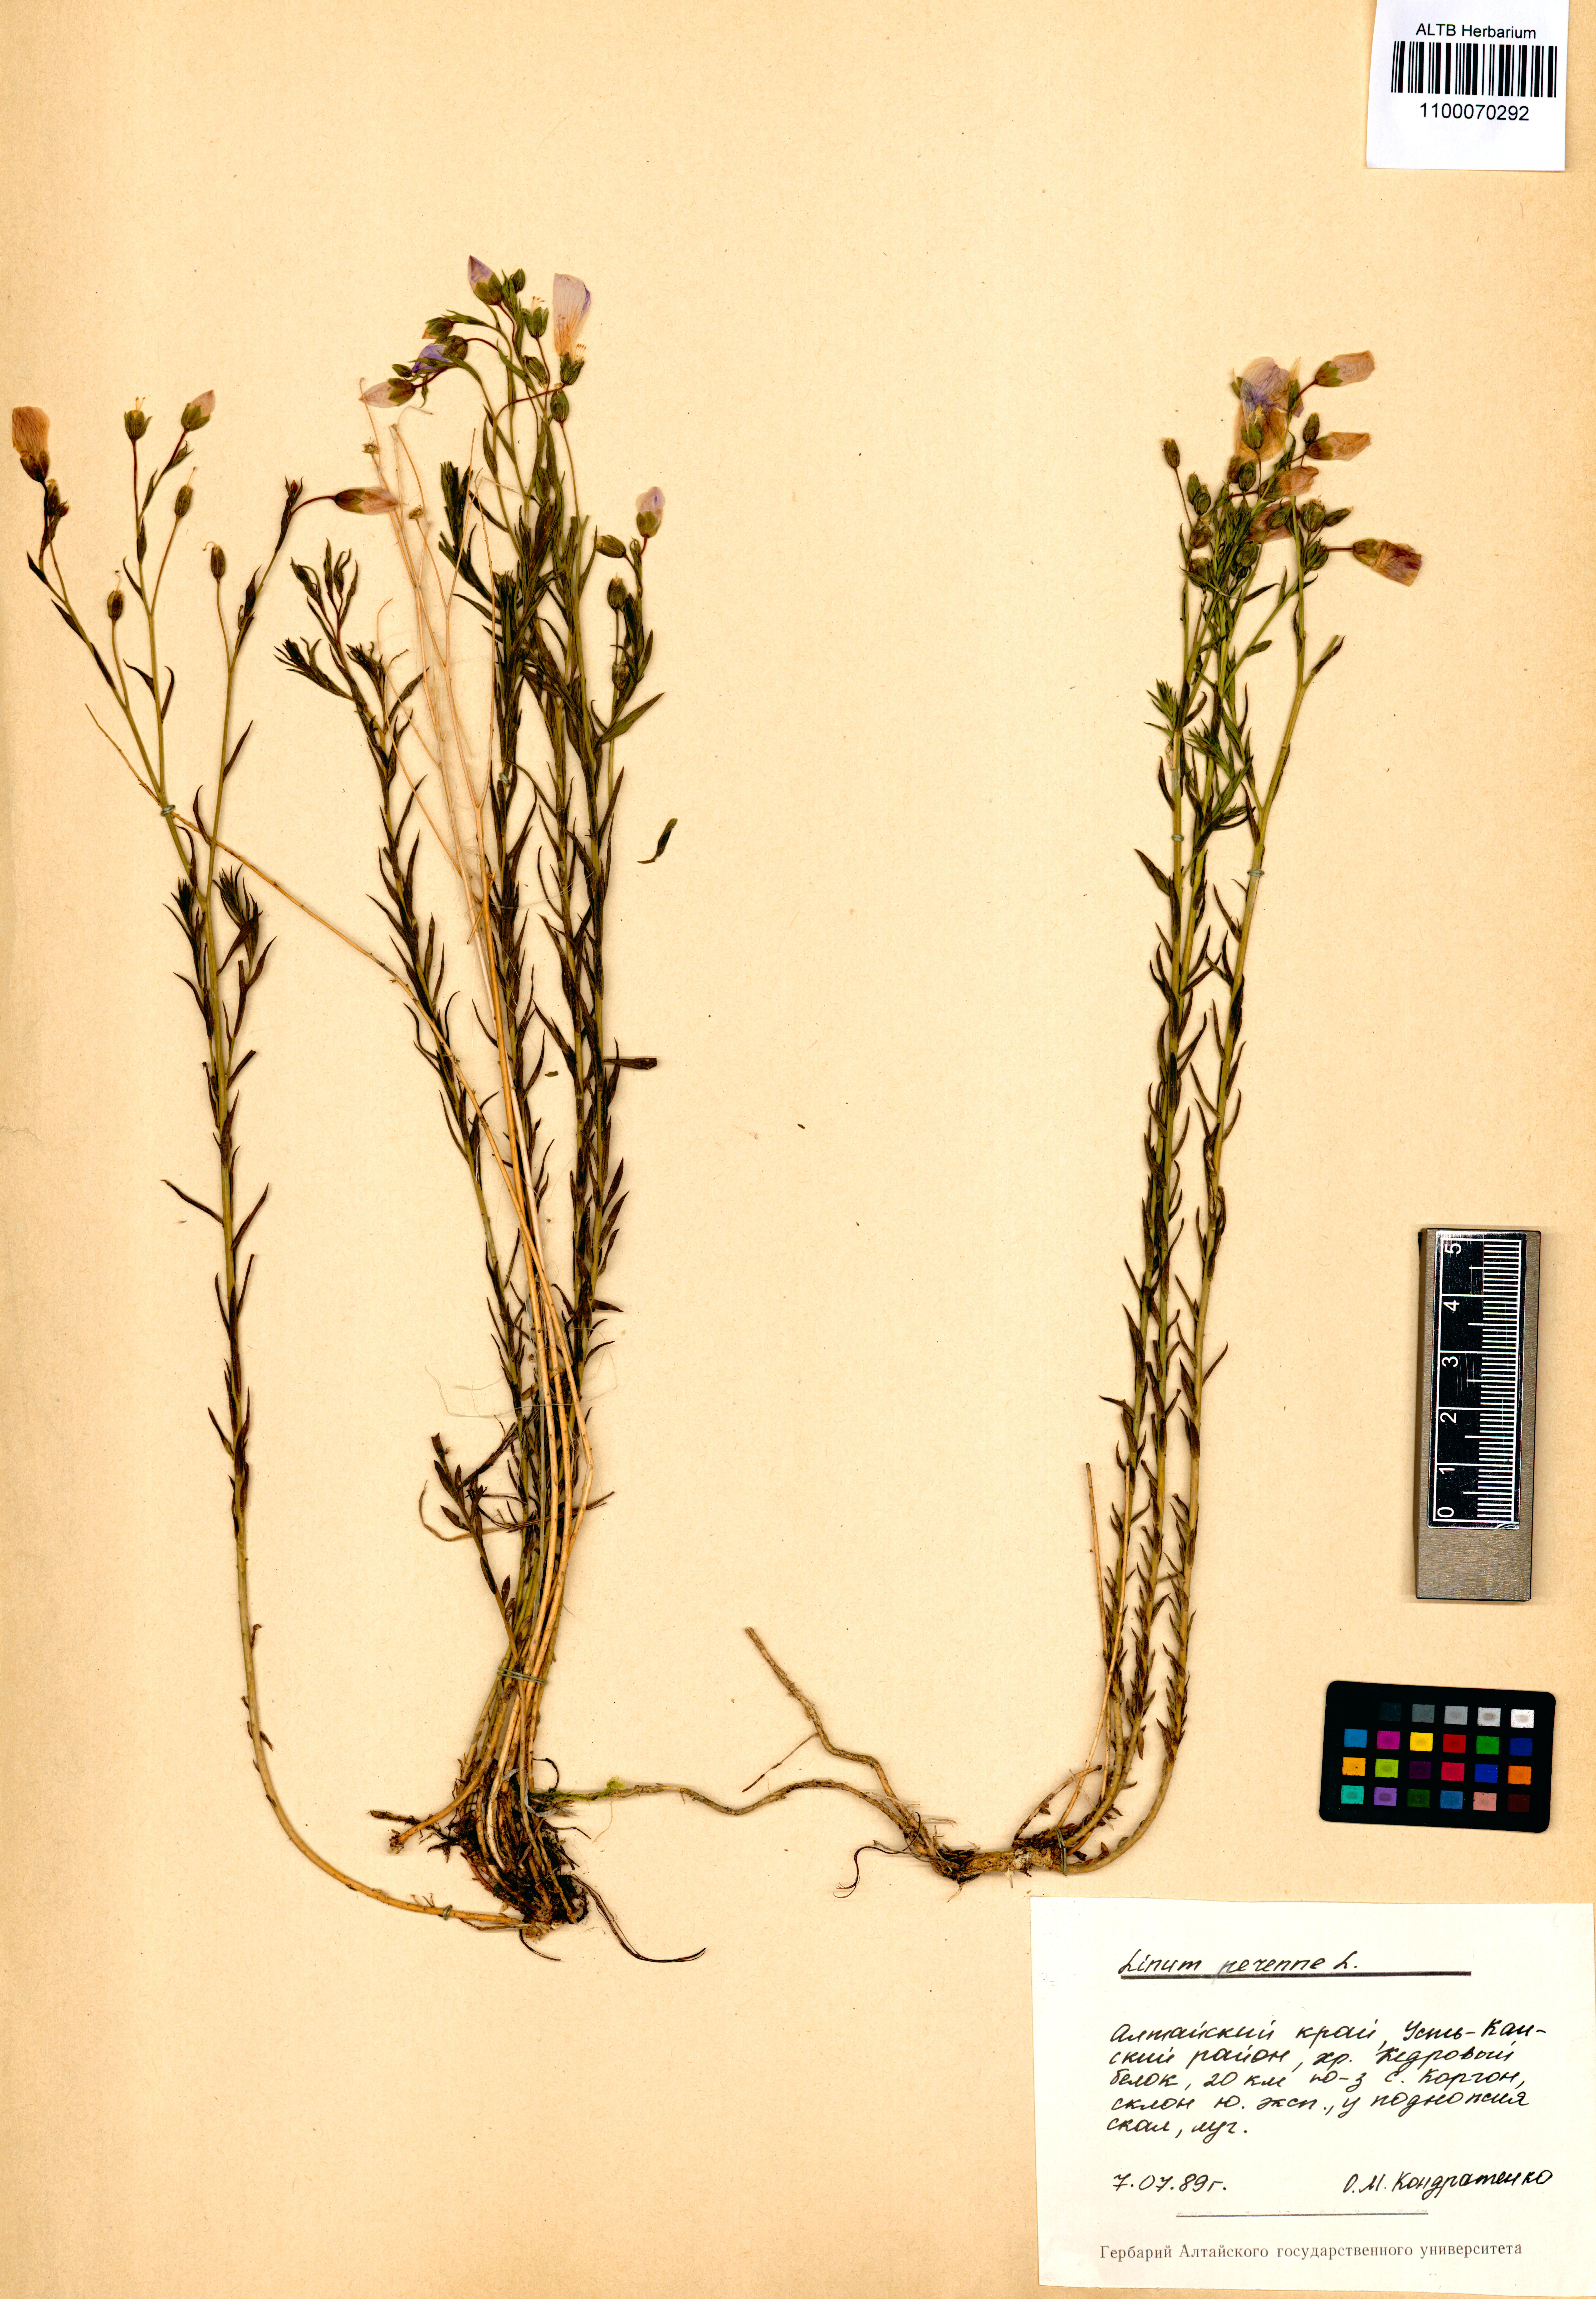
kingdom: Plantae
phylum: Tracheophyta
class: Magnoliopsida
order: Malpighiales
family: Linaceae
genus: Linum
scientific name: Linum perenne
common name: Blue flax
